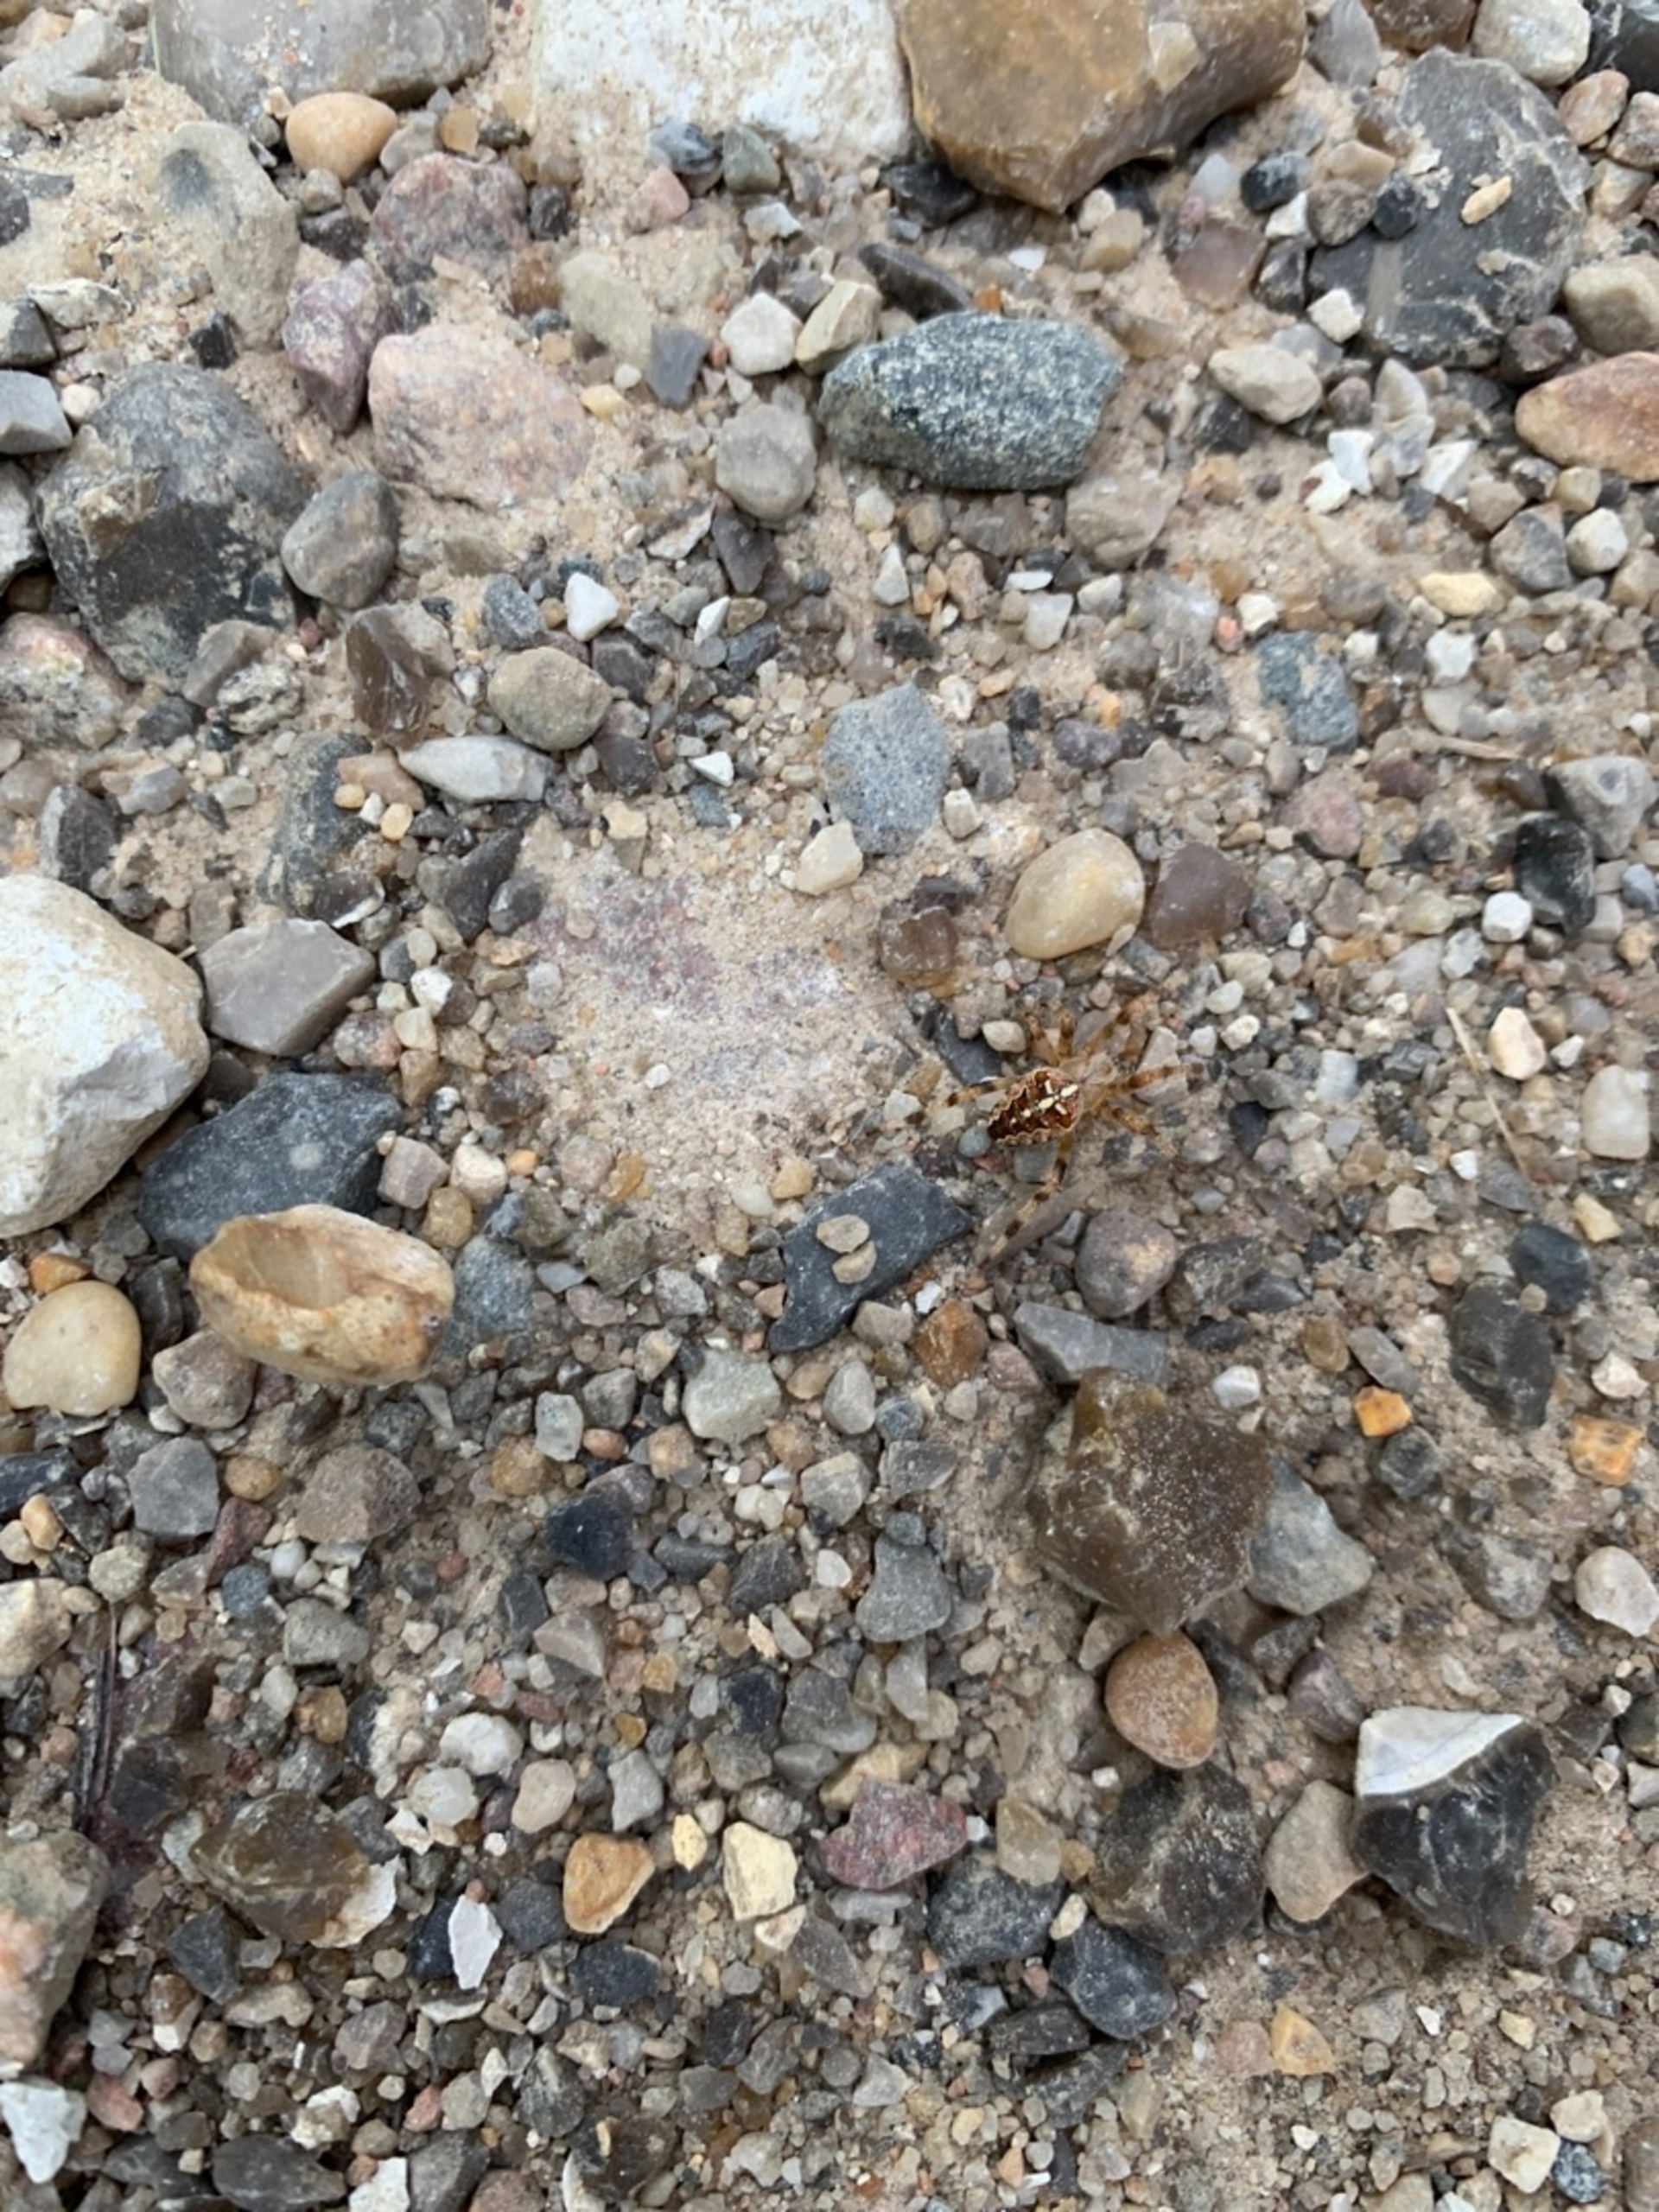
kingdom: Animalia
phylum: Arthropoda
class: Arachnida
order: Araneae
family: Araneidae
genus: Araneus
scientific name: Araneus diadematus
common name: Korsedderkop
